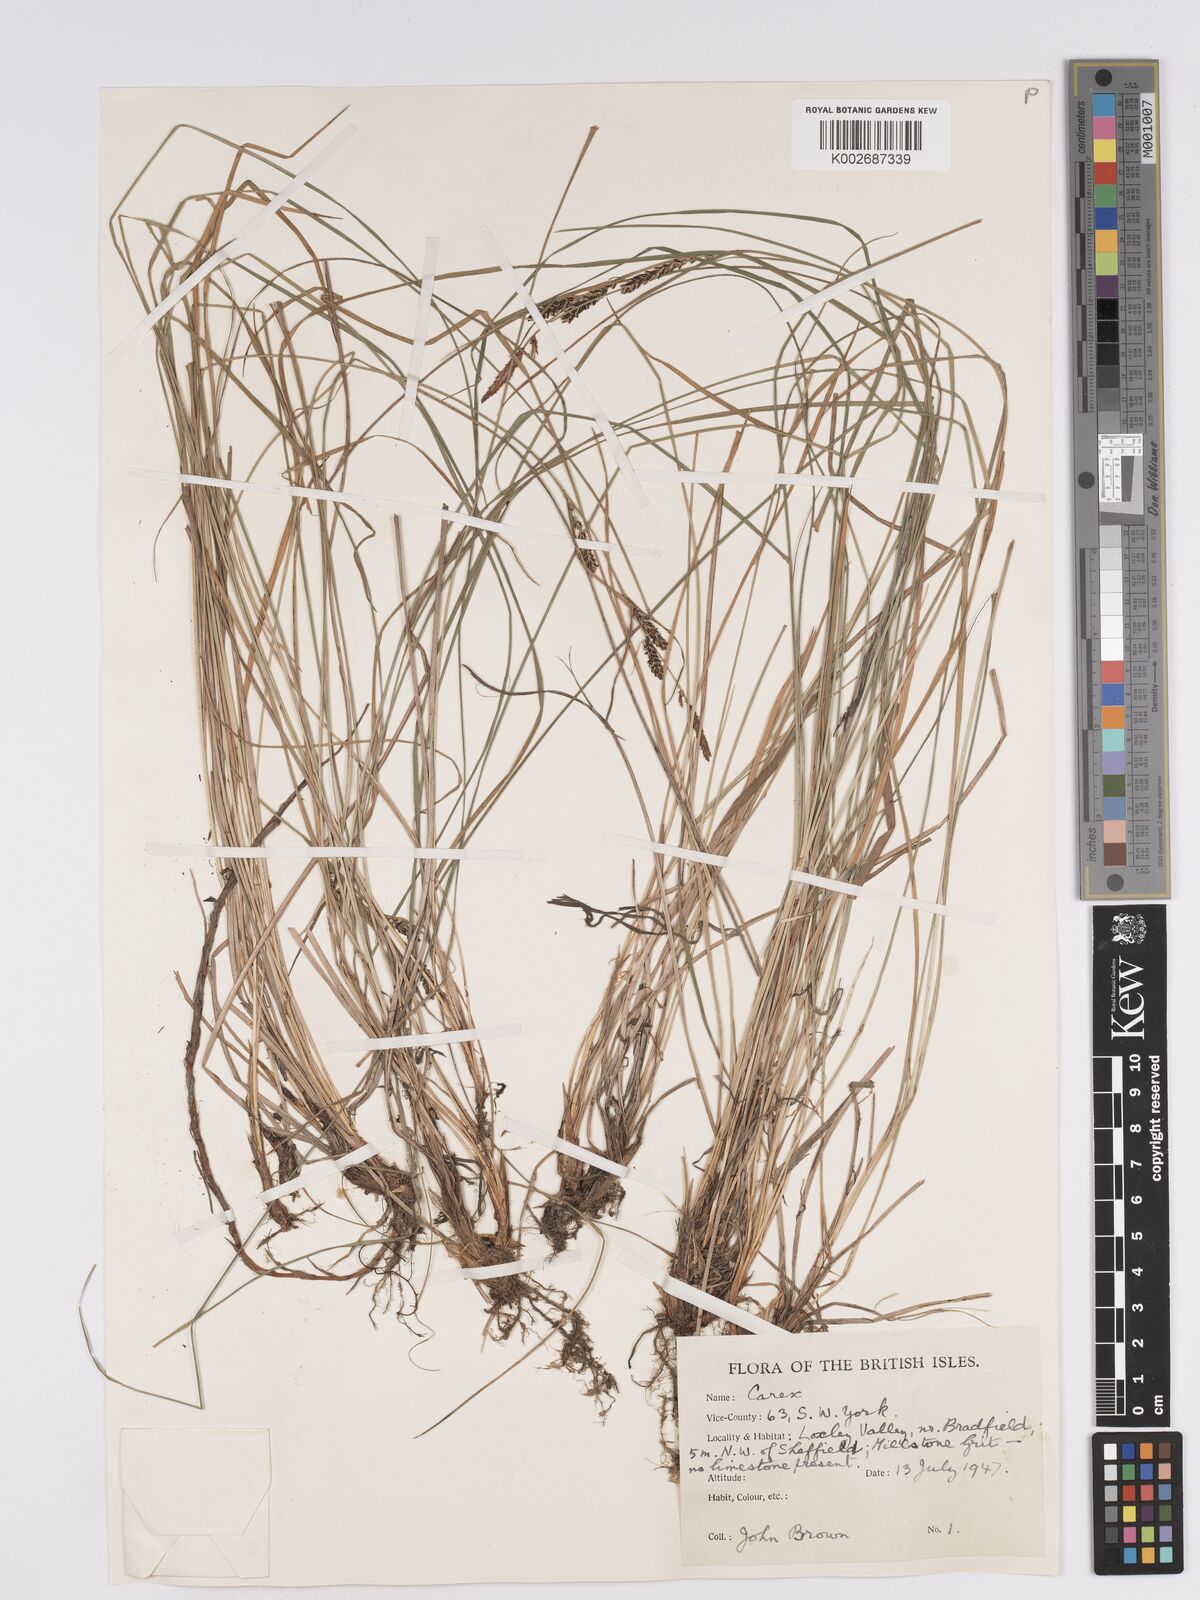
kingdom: Plantae
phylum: Tracheophyta
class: Liliopsida
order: Poales
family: Cyperaceae
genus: Carex
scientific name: Carex nigra
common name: Common sedge
